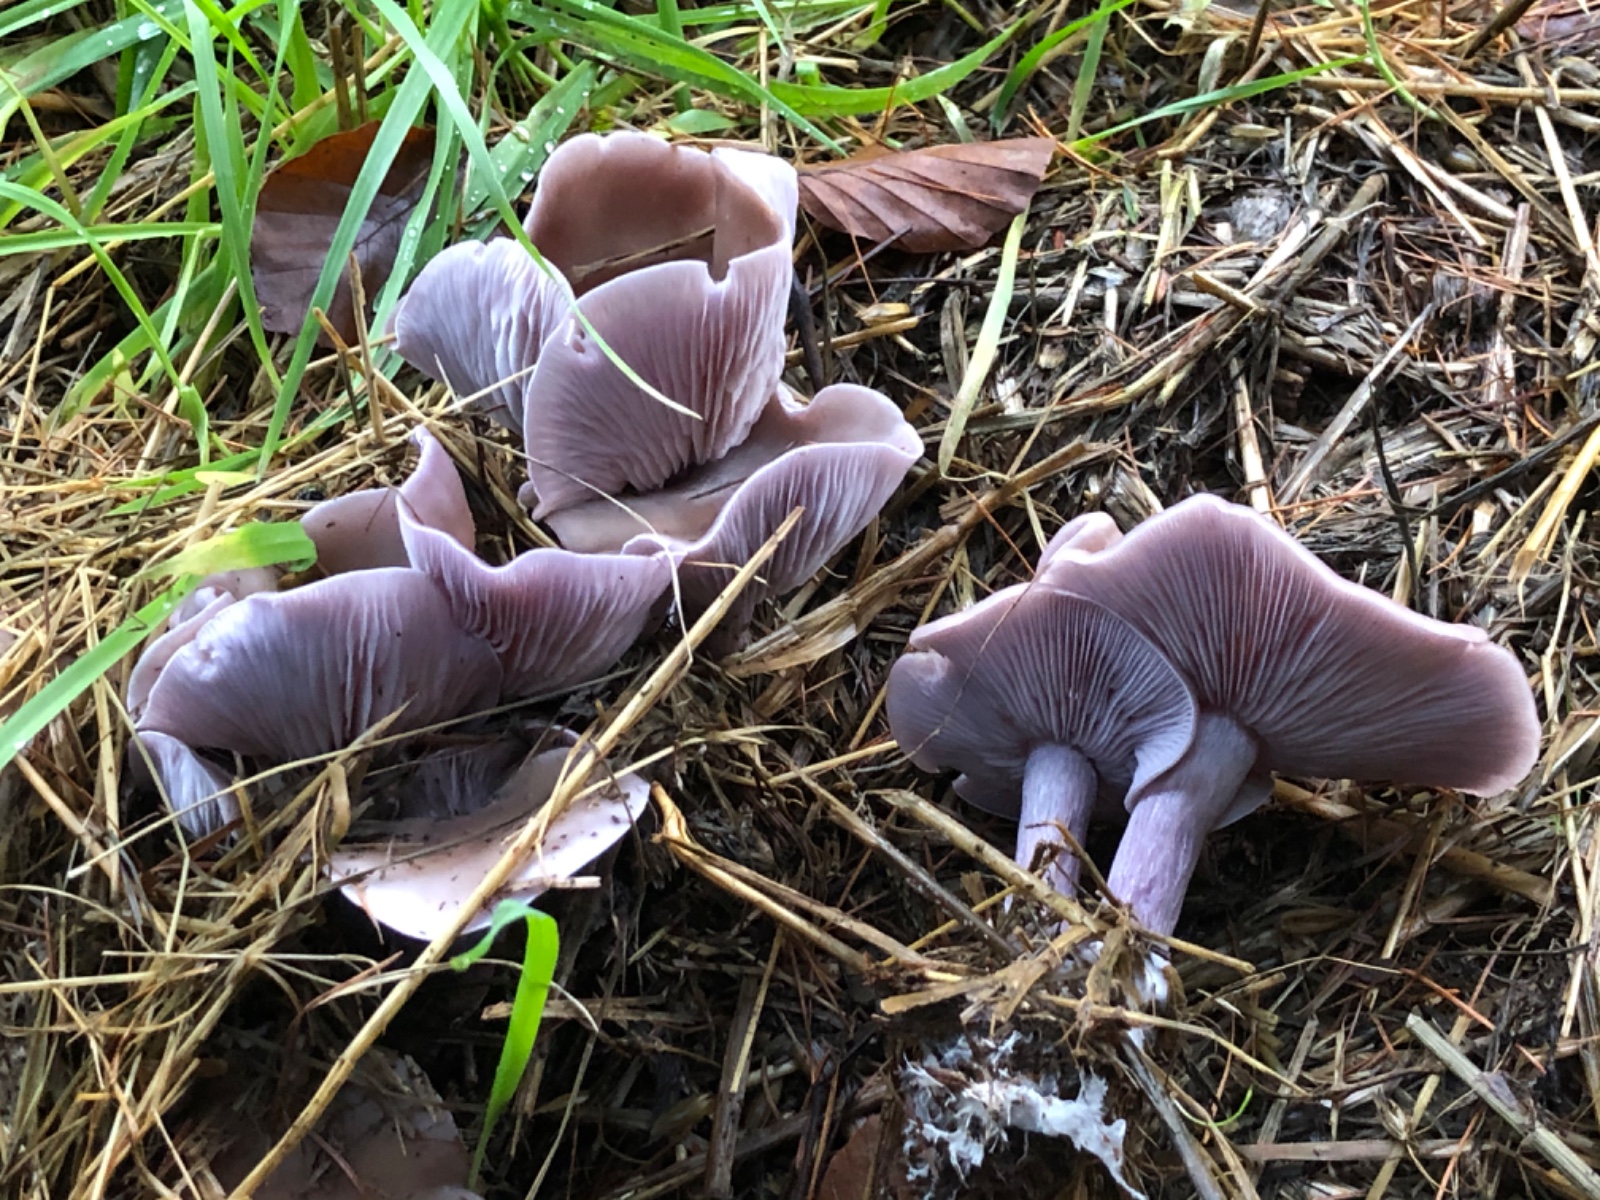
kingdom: Fungi
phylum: Basidiomycota
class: Agaricomycetes
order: Agaricales
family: Tricholomataceae
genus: Lepista
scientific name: Lepista nuda
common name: violet hekseringshat
